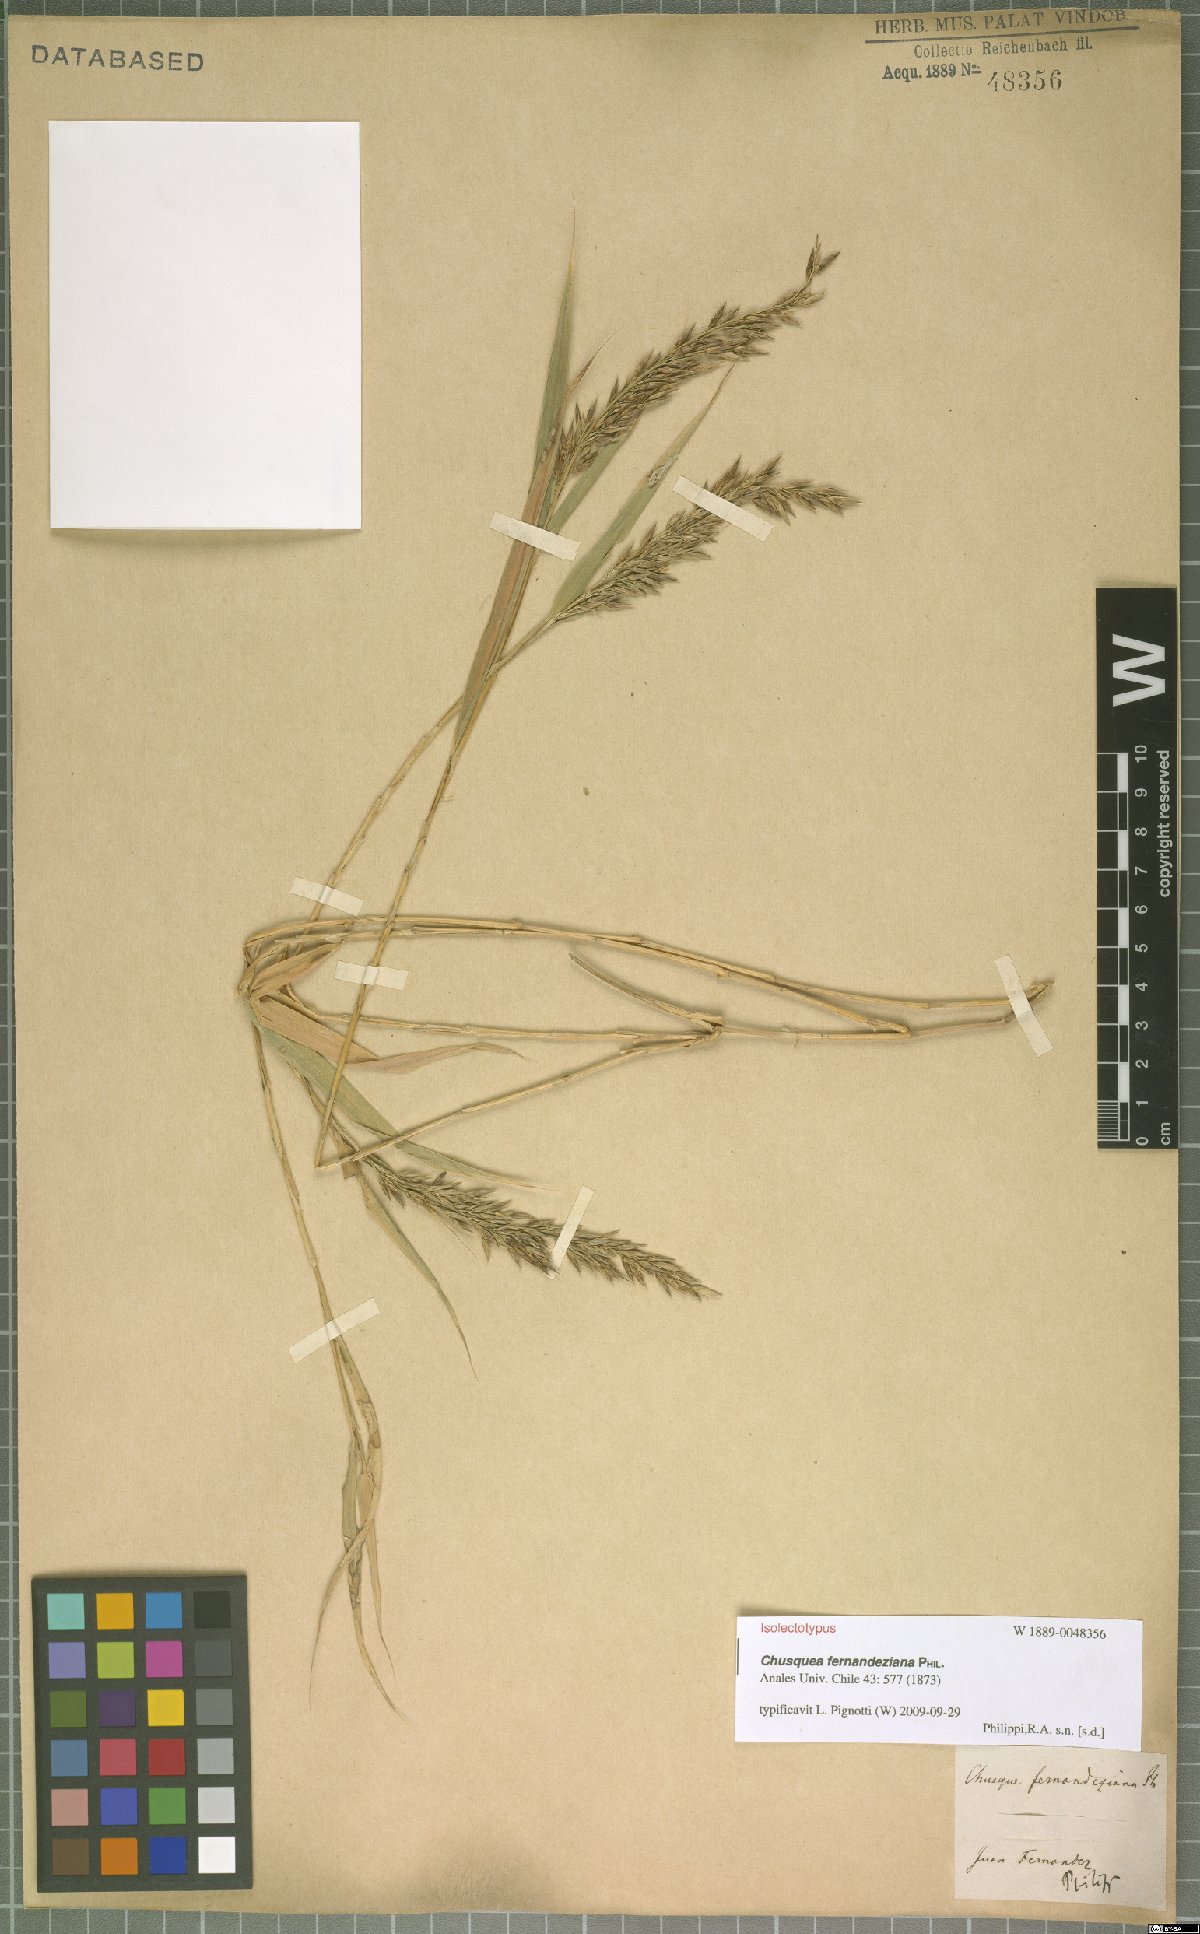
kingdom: Plantae
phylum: Tracheophyta
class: Liliopsida
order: Poales
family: Poaceae
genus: Chusquea
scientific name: Chusquea fernandeziana
